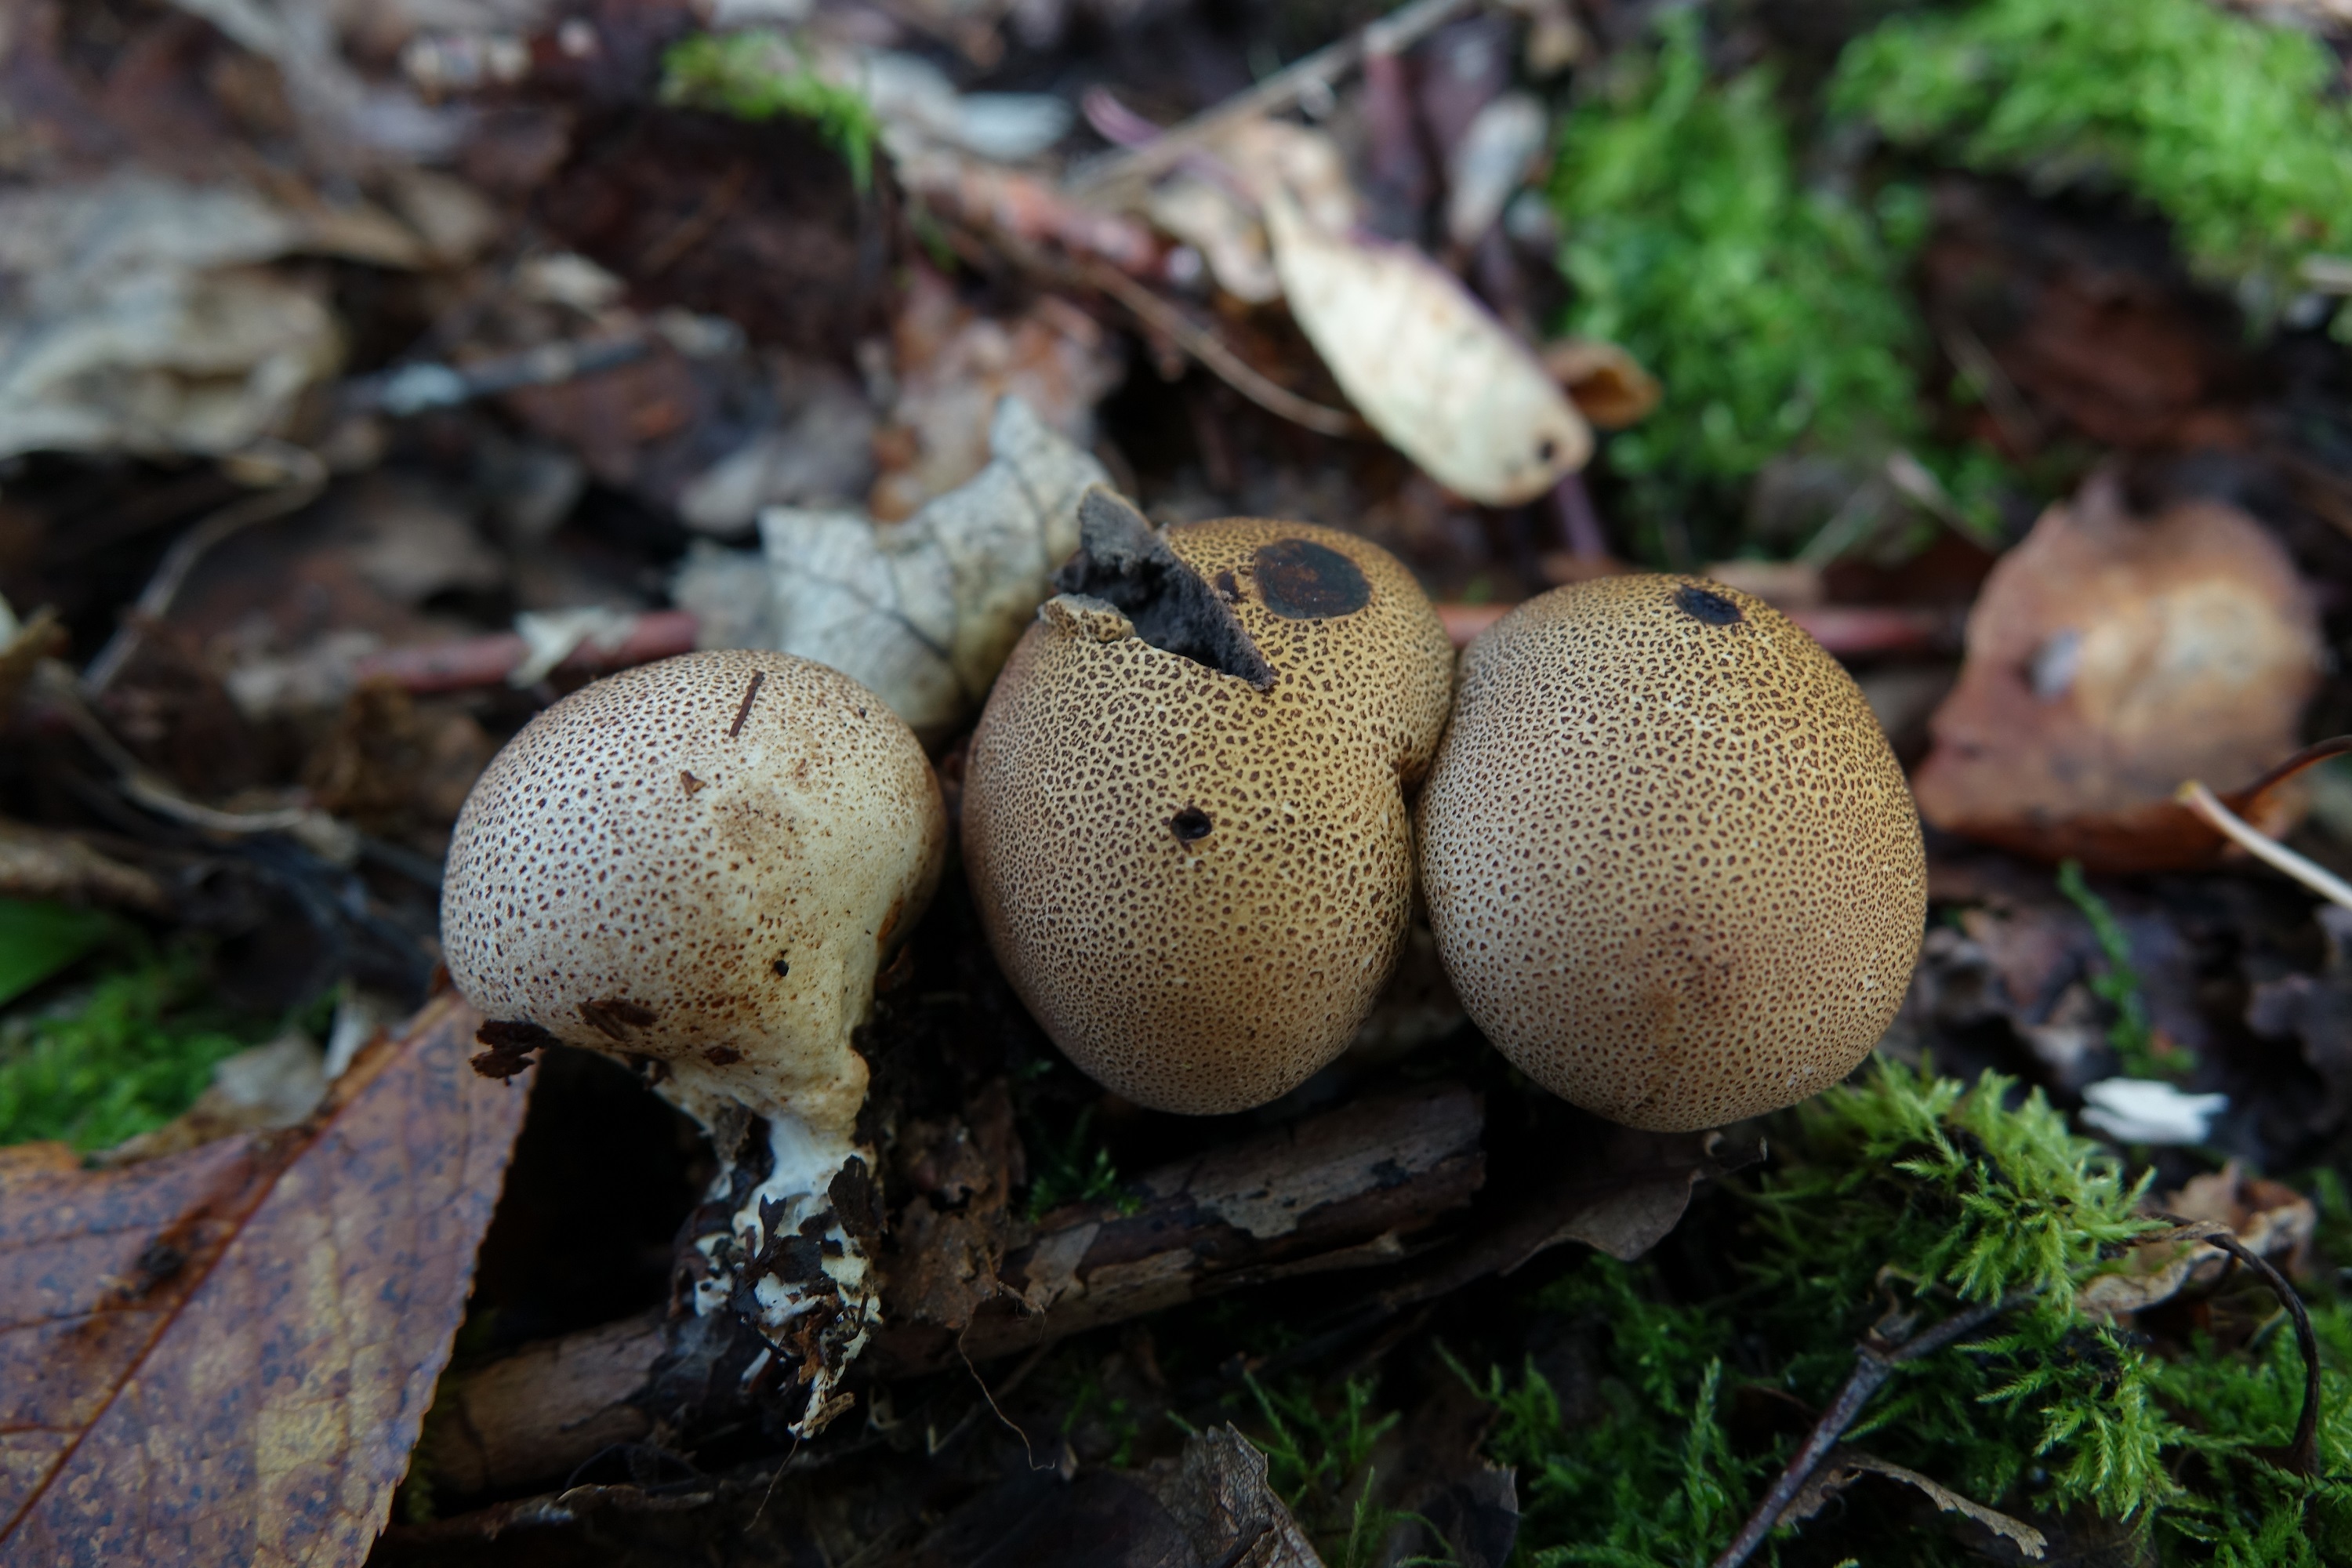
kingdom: Fungi
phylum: Basidiomycota
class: Agaricomycetes
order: Boletales
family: Sclerodermataceae
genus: Scleroderma
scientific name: Scleroderma areolatum
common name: Leopard earthball
